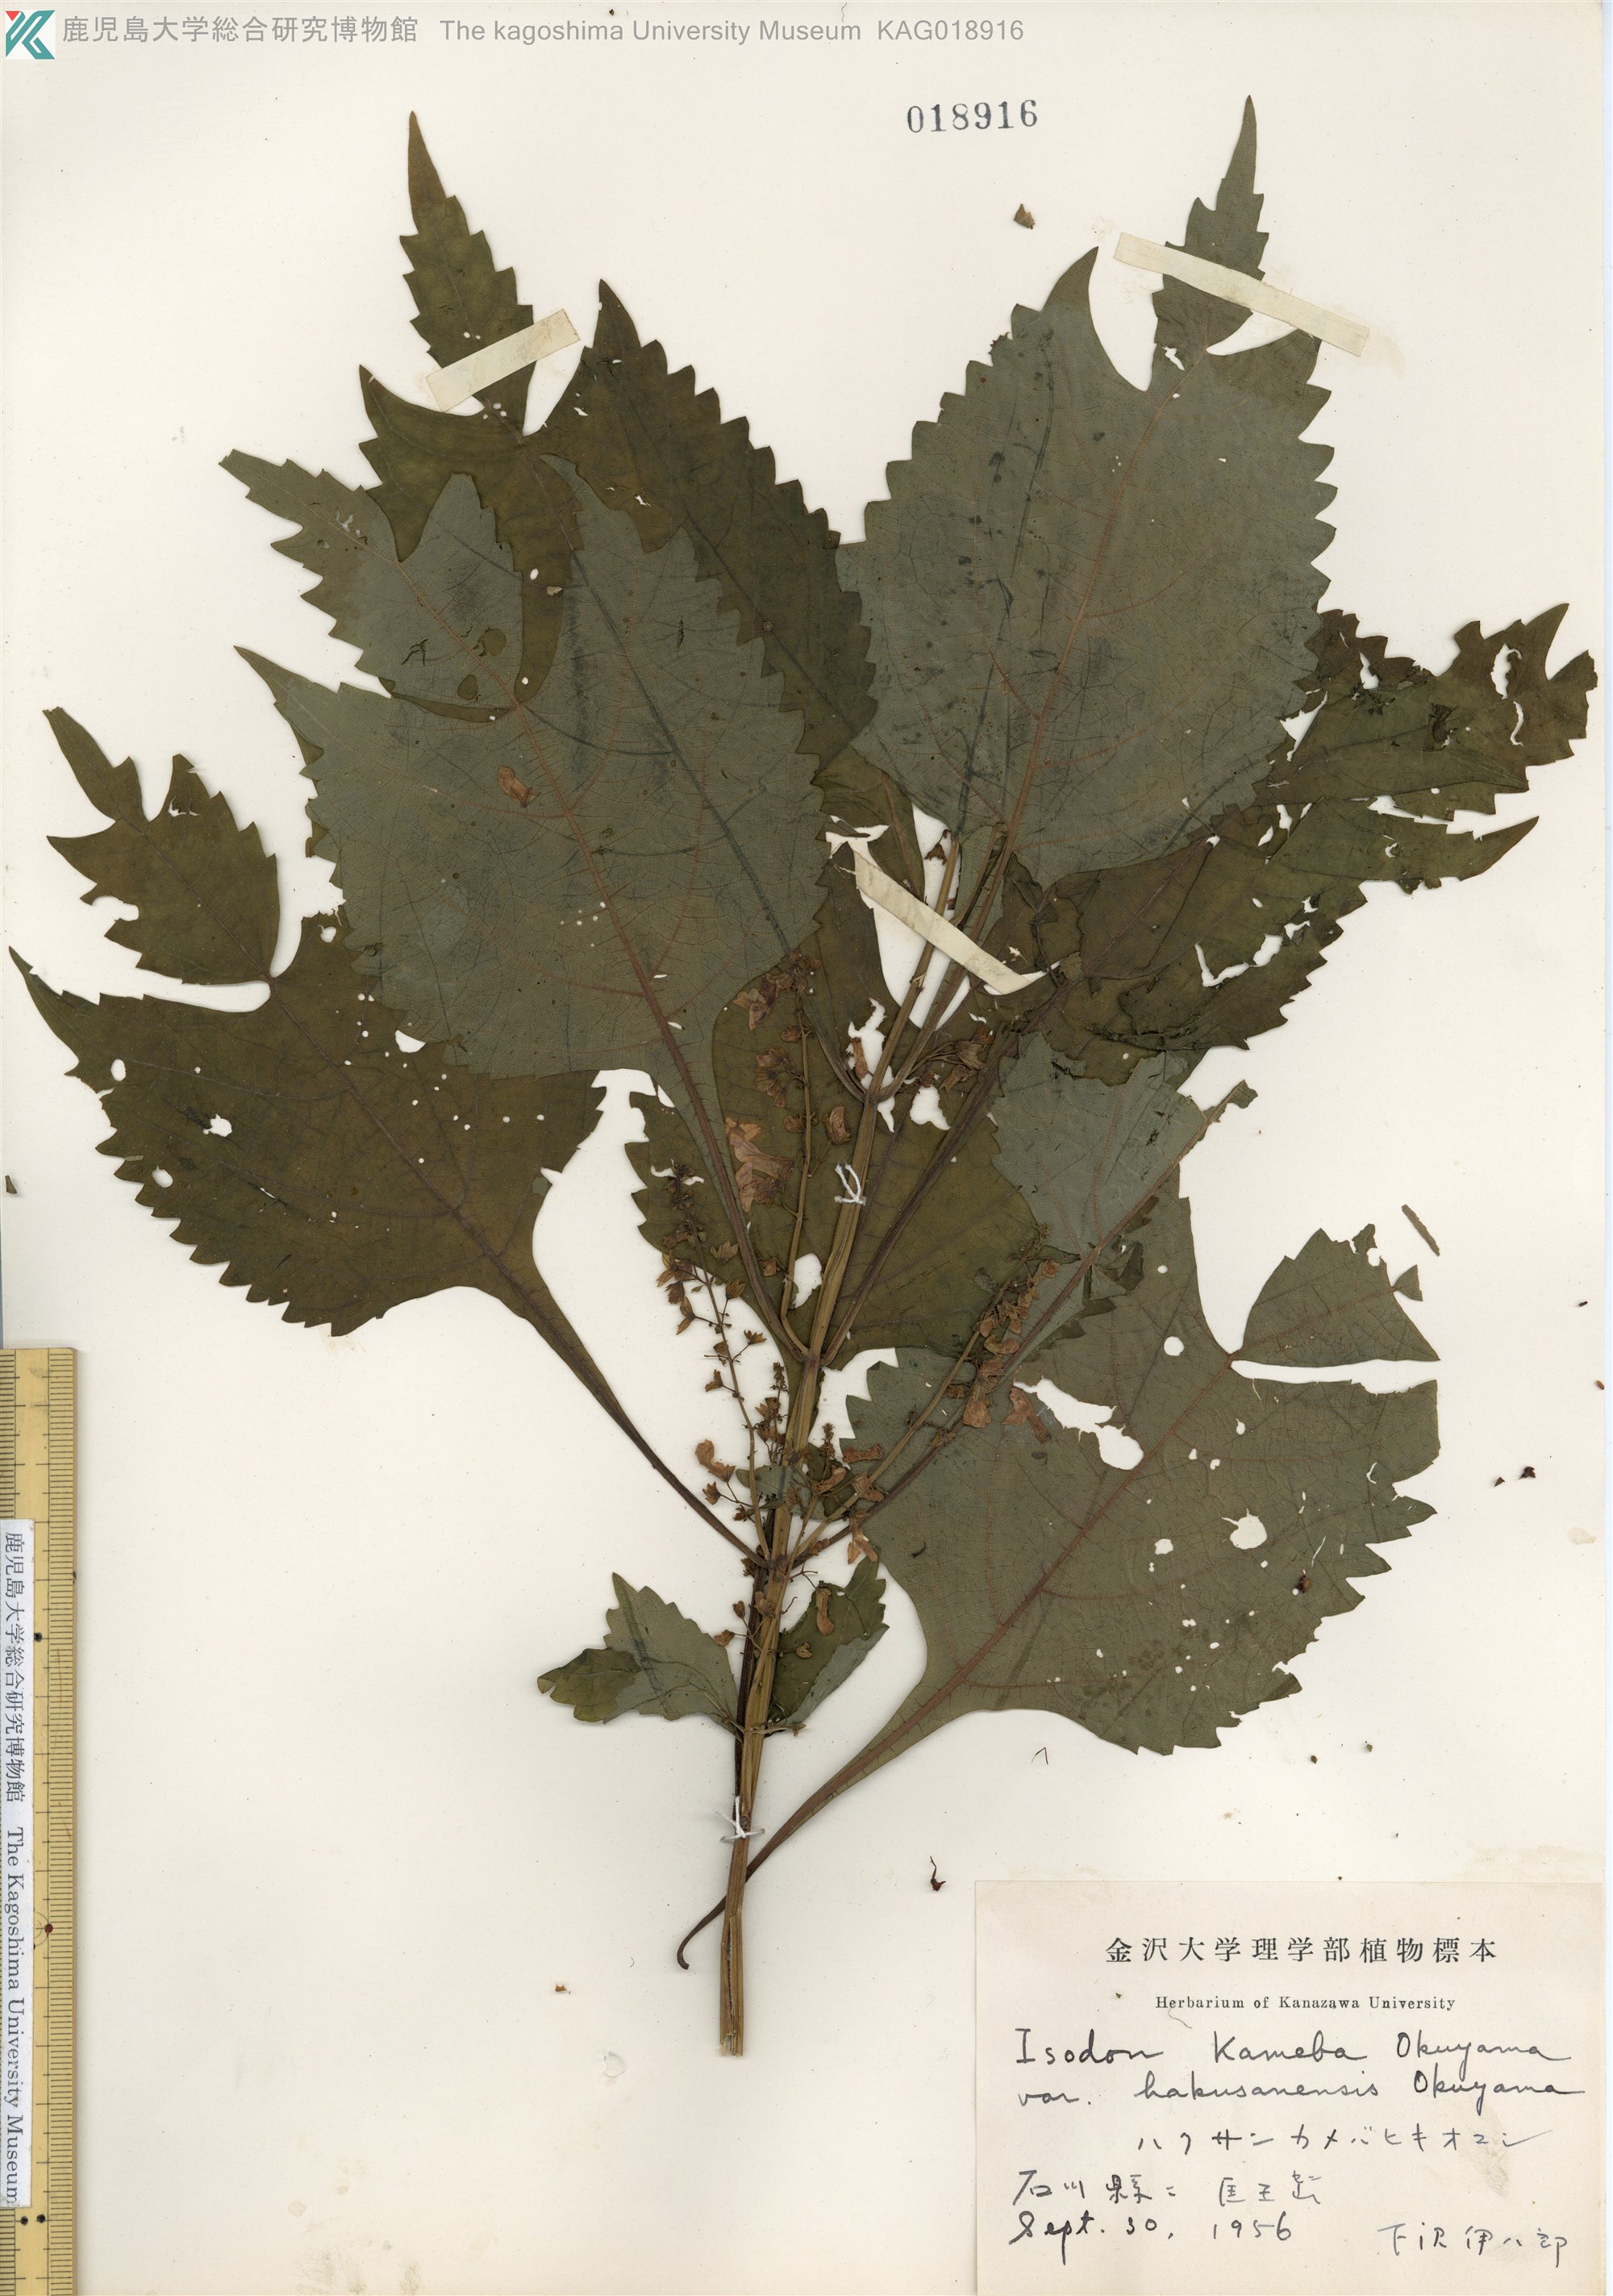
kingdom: Plantae
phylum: Tracheophyta
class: Magnoliopsida
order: Lamiales
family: Lamiaceae
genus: Isodon
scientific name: Isodon umbrosus
